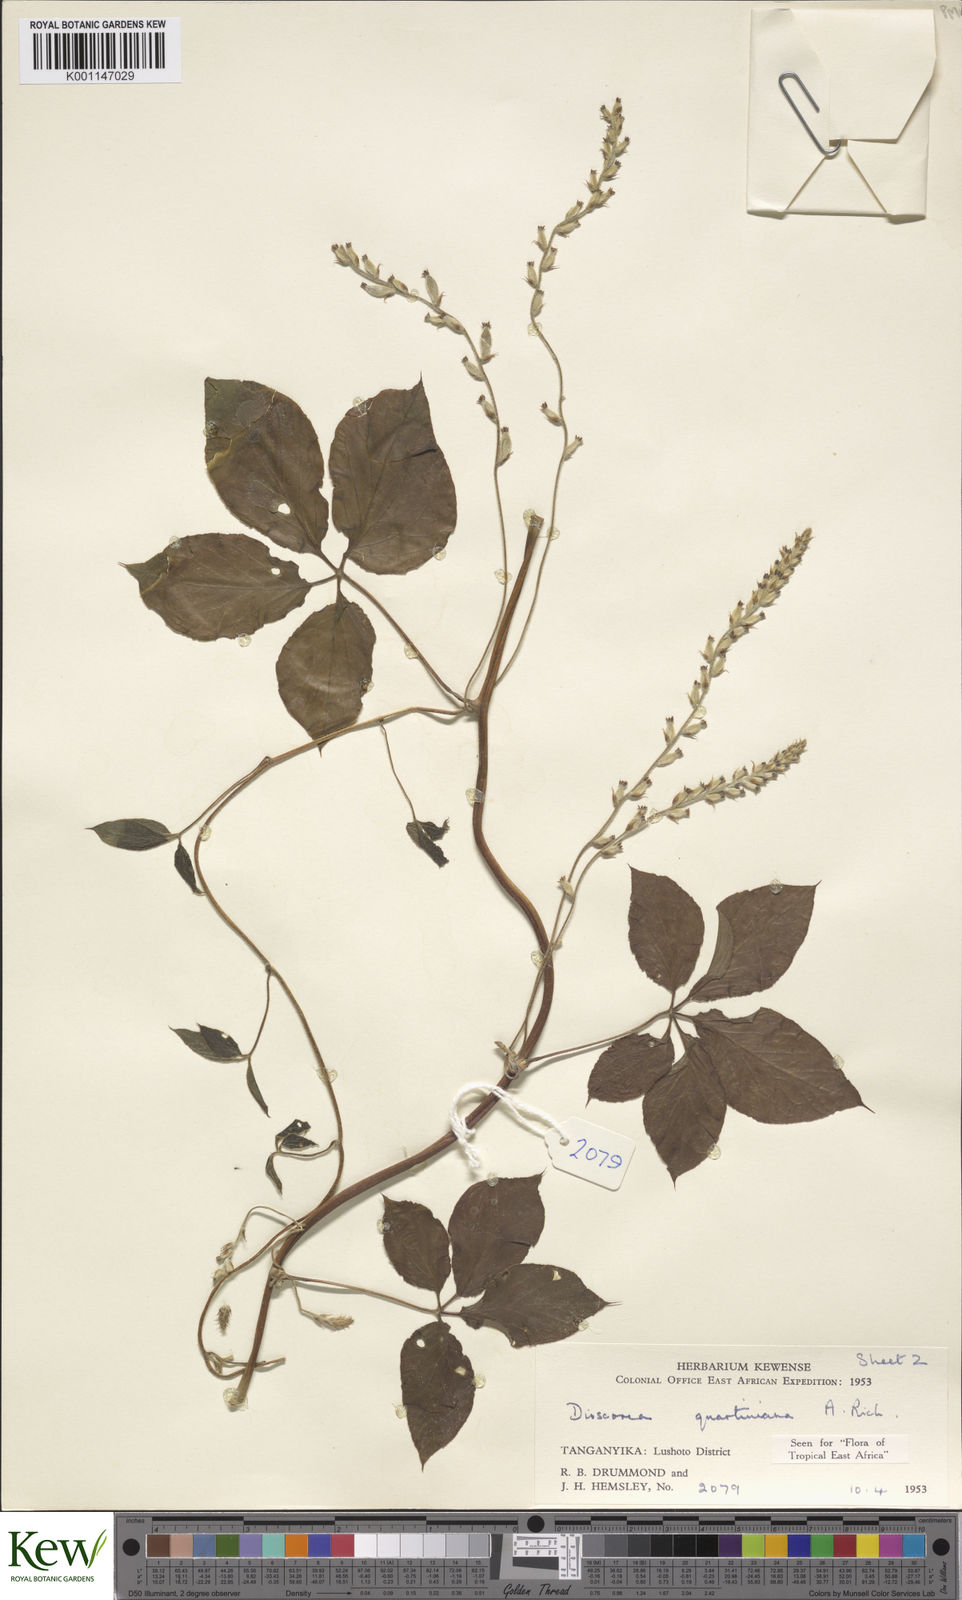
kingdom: Plantae
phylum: Tracheophyta
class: Liliopsida
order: Dioscoreales
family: Dioscoreaceae
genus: Dioscorea
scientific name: Dioscorea quartiniana
